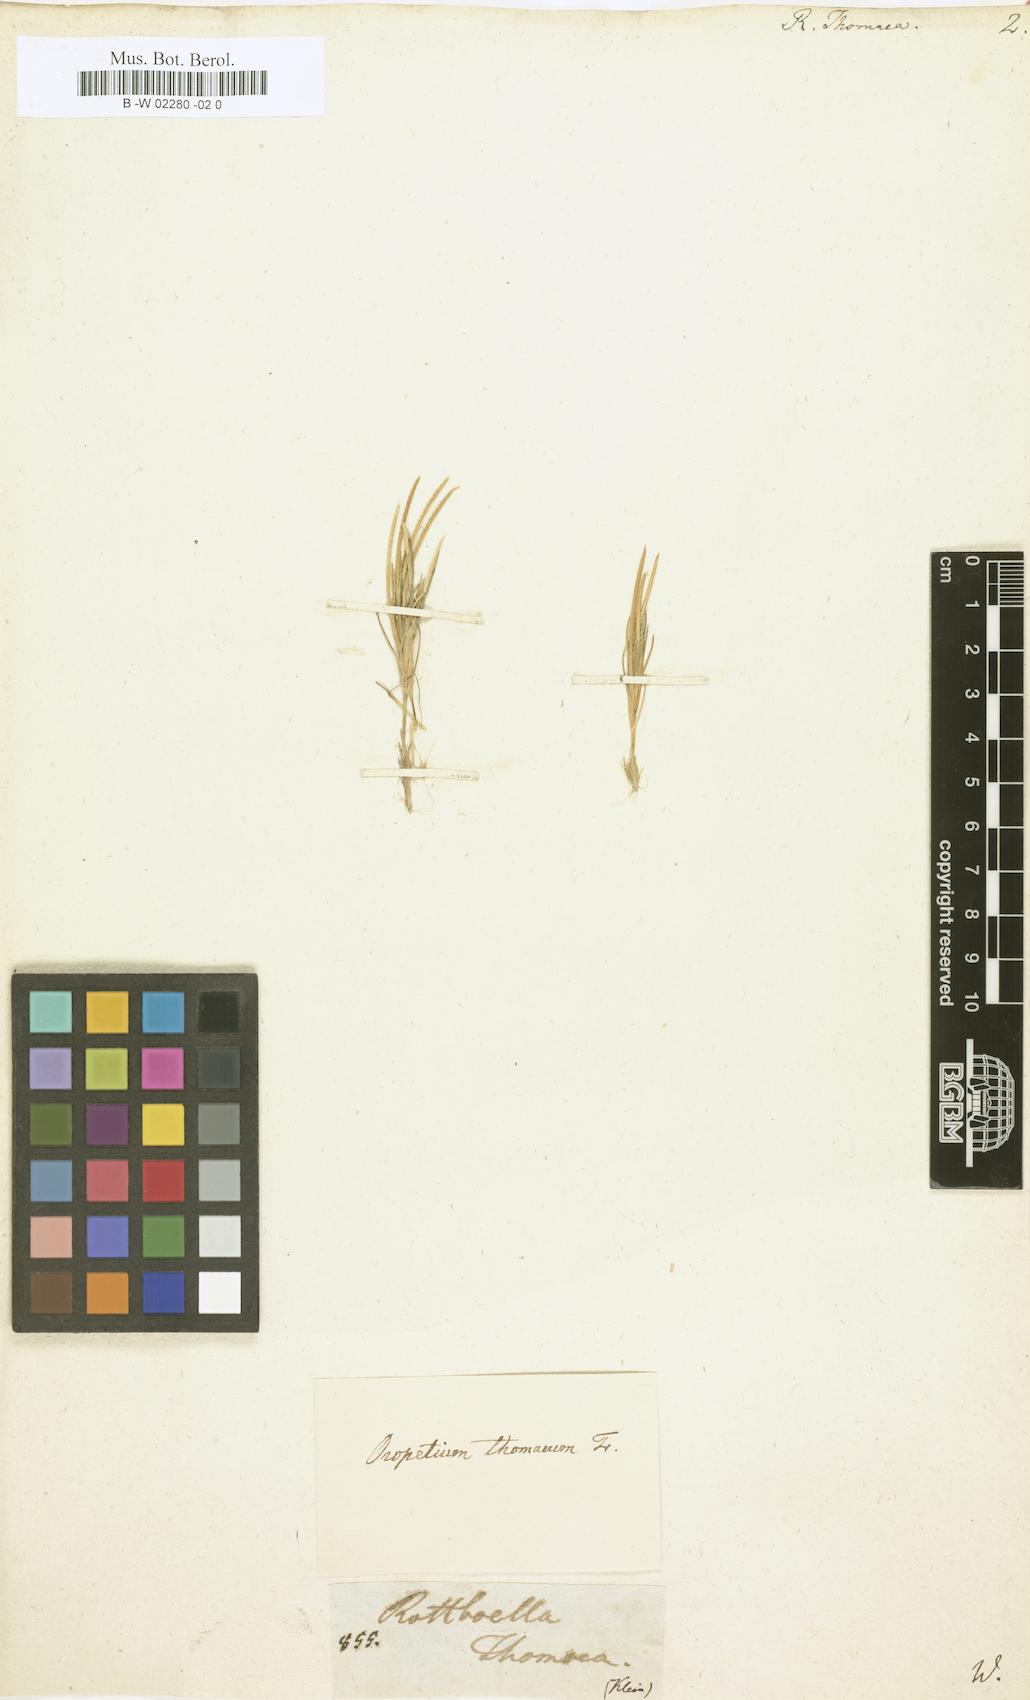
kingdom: Plantae
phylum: Tracheophyta
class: Liliopsida
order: Poales
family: Poaceae
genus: Rottboellia
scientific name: Rottboellia thomaea
